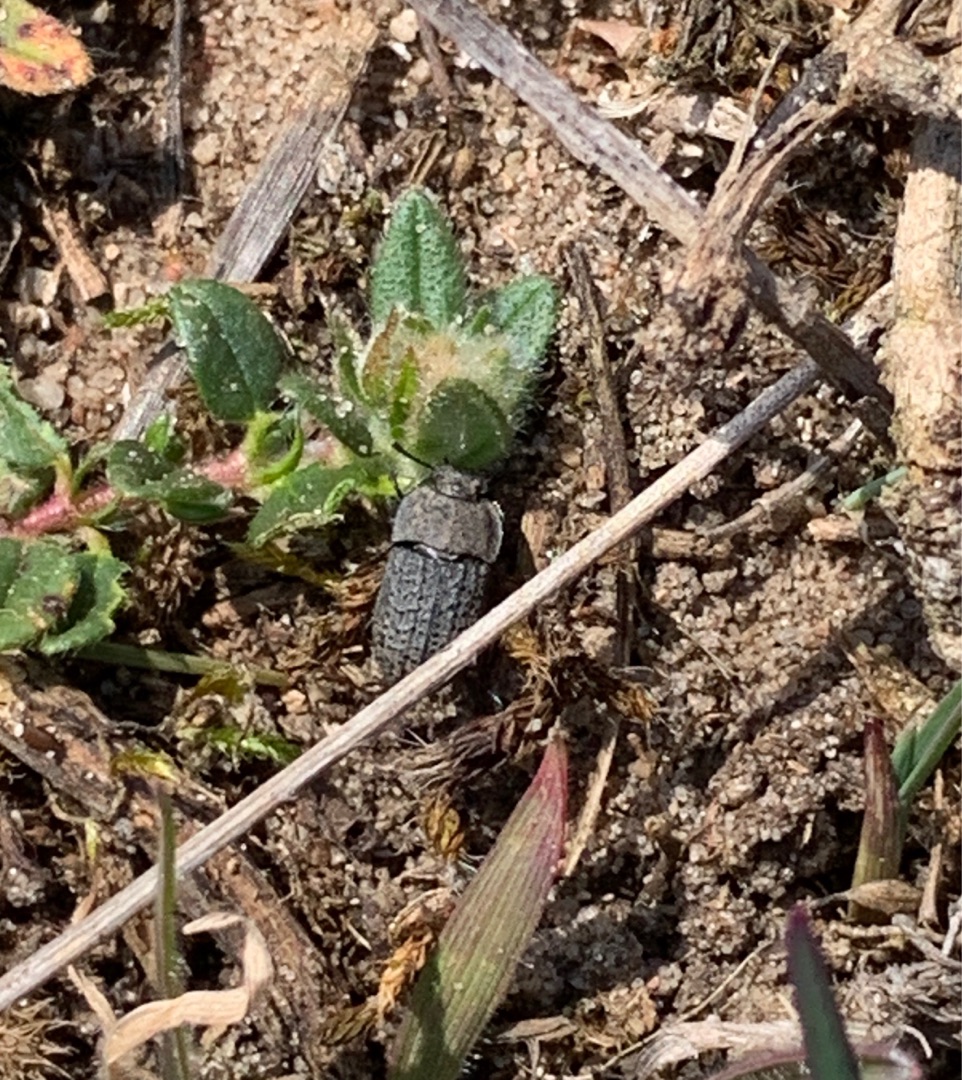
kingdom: Animalia
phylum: Arthropoda
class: Insecta
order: Coleoptera
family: Tenebrionidae
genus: Opatrum
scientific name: Opatrum sabulosum
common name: Skræntskyggebille
